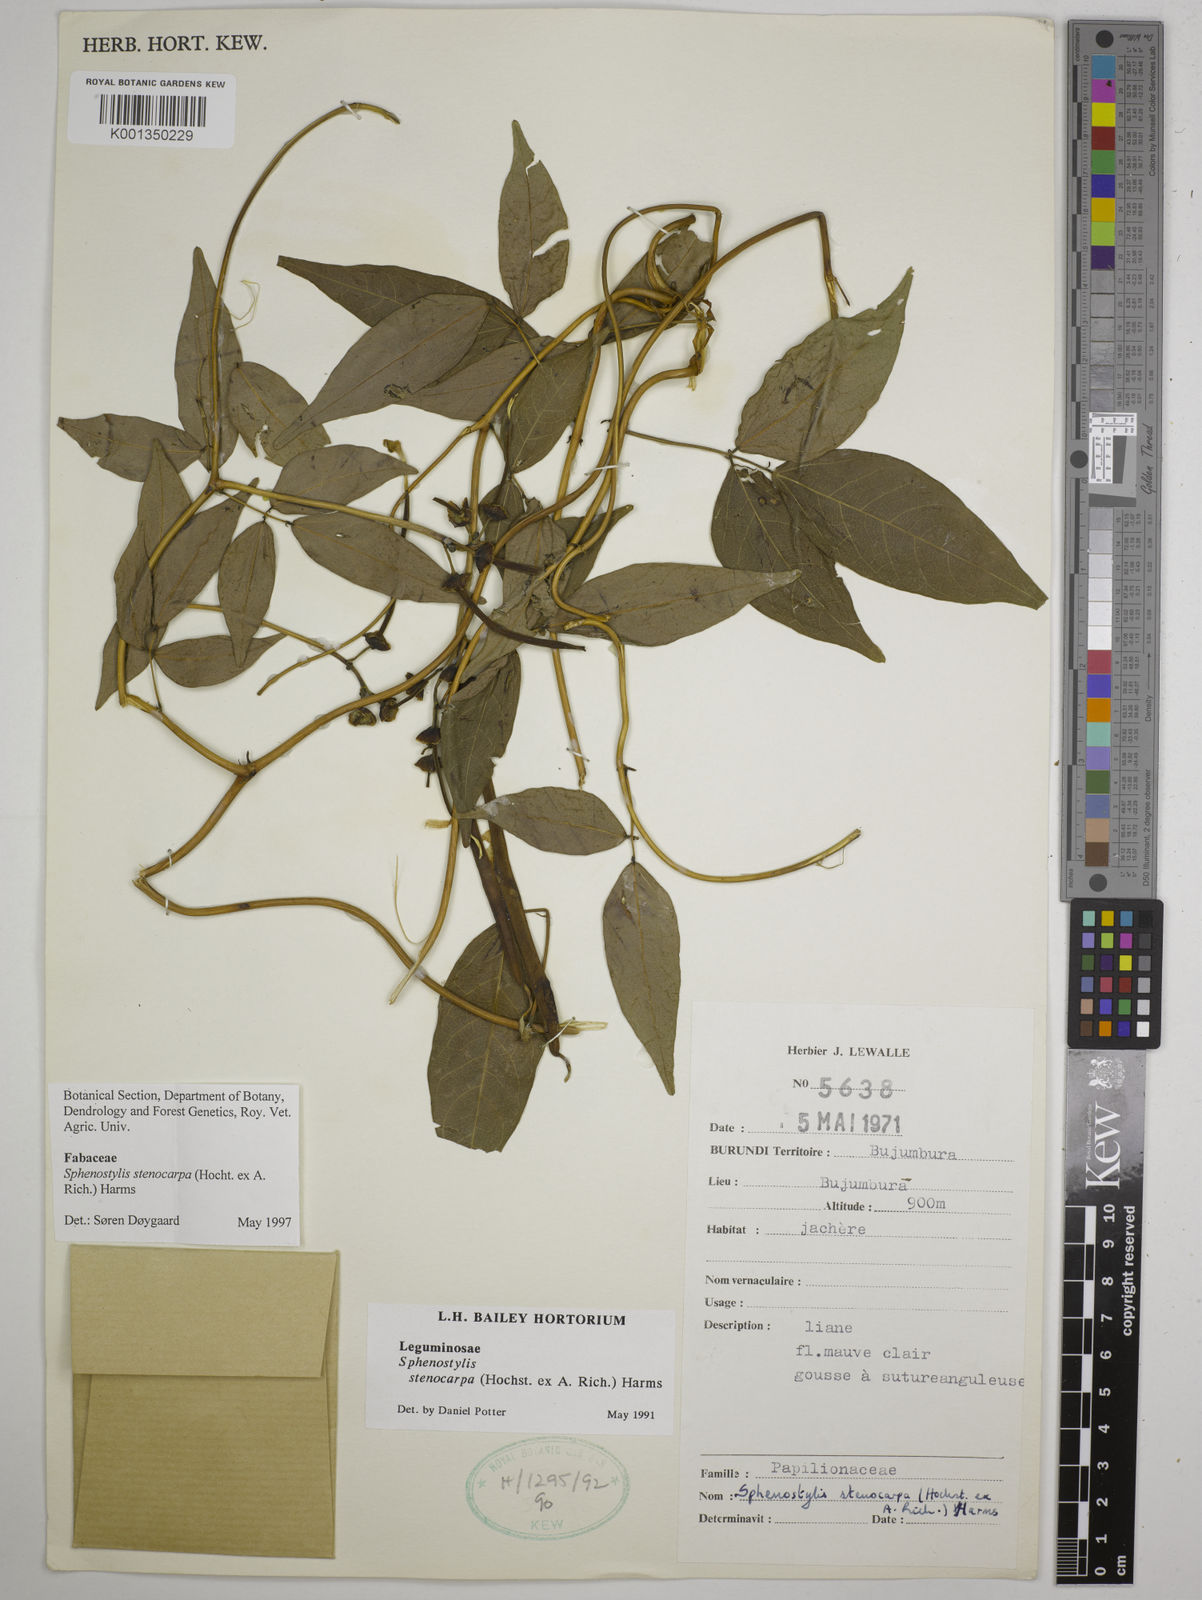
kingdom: Plantae
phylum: Tracheophyta
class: Magnoliopsida
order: Fabales
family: Fabaceae
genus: Sphenostylis
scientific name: Sphenostylis stenocarpa
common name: Yam-pea
